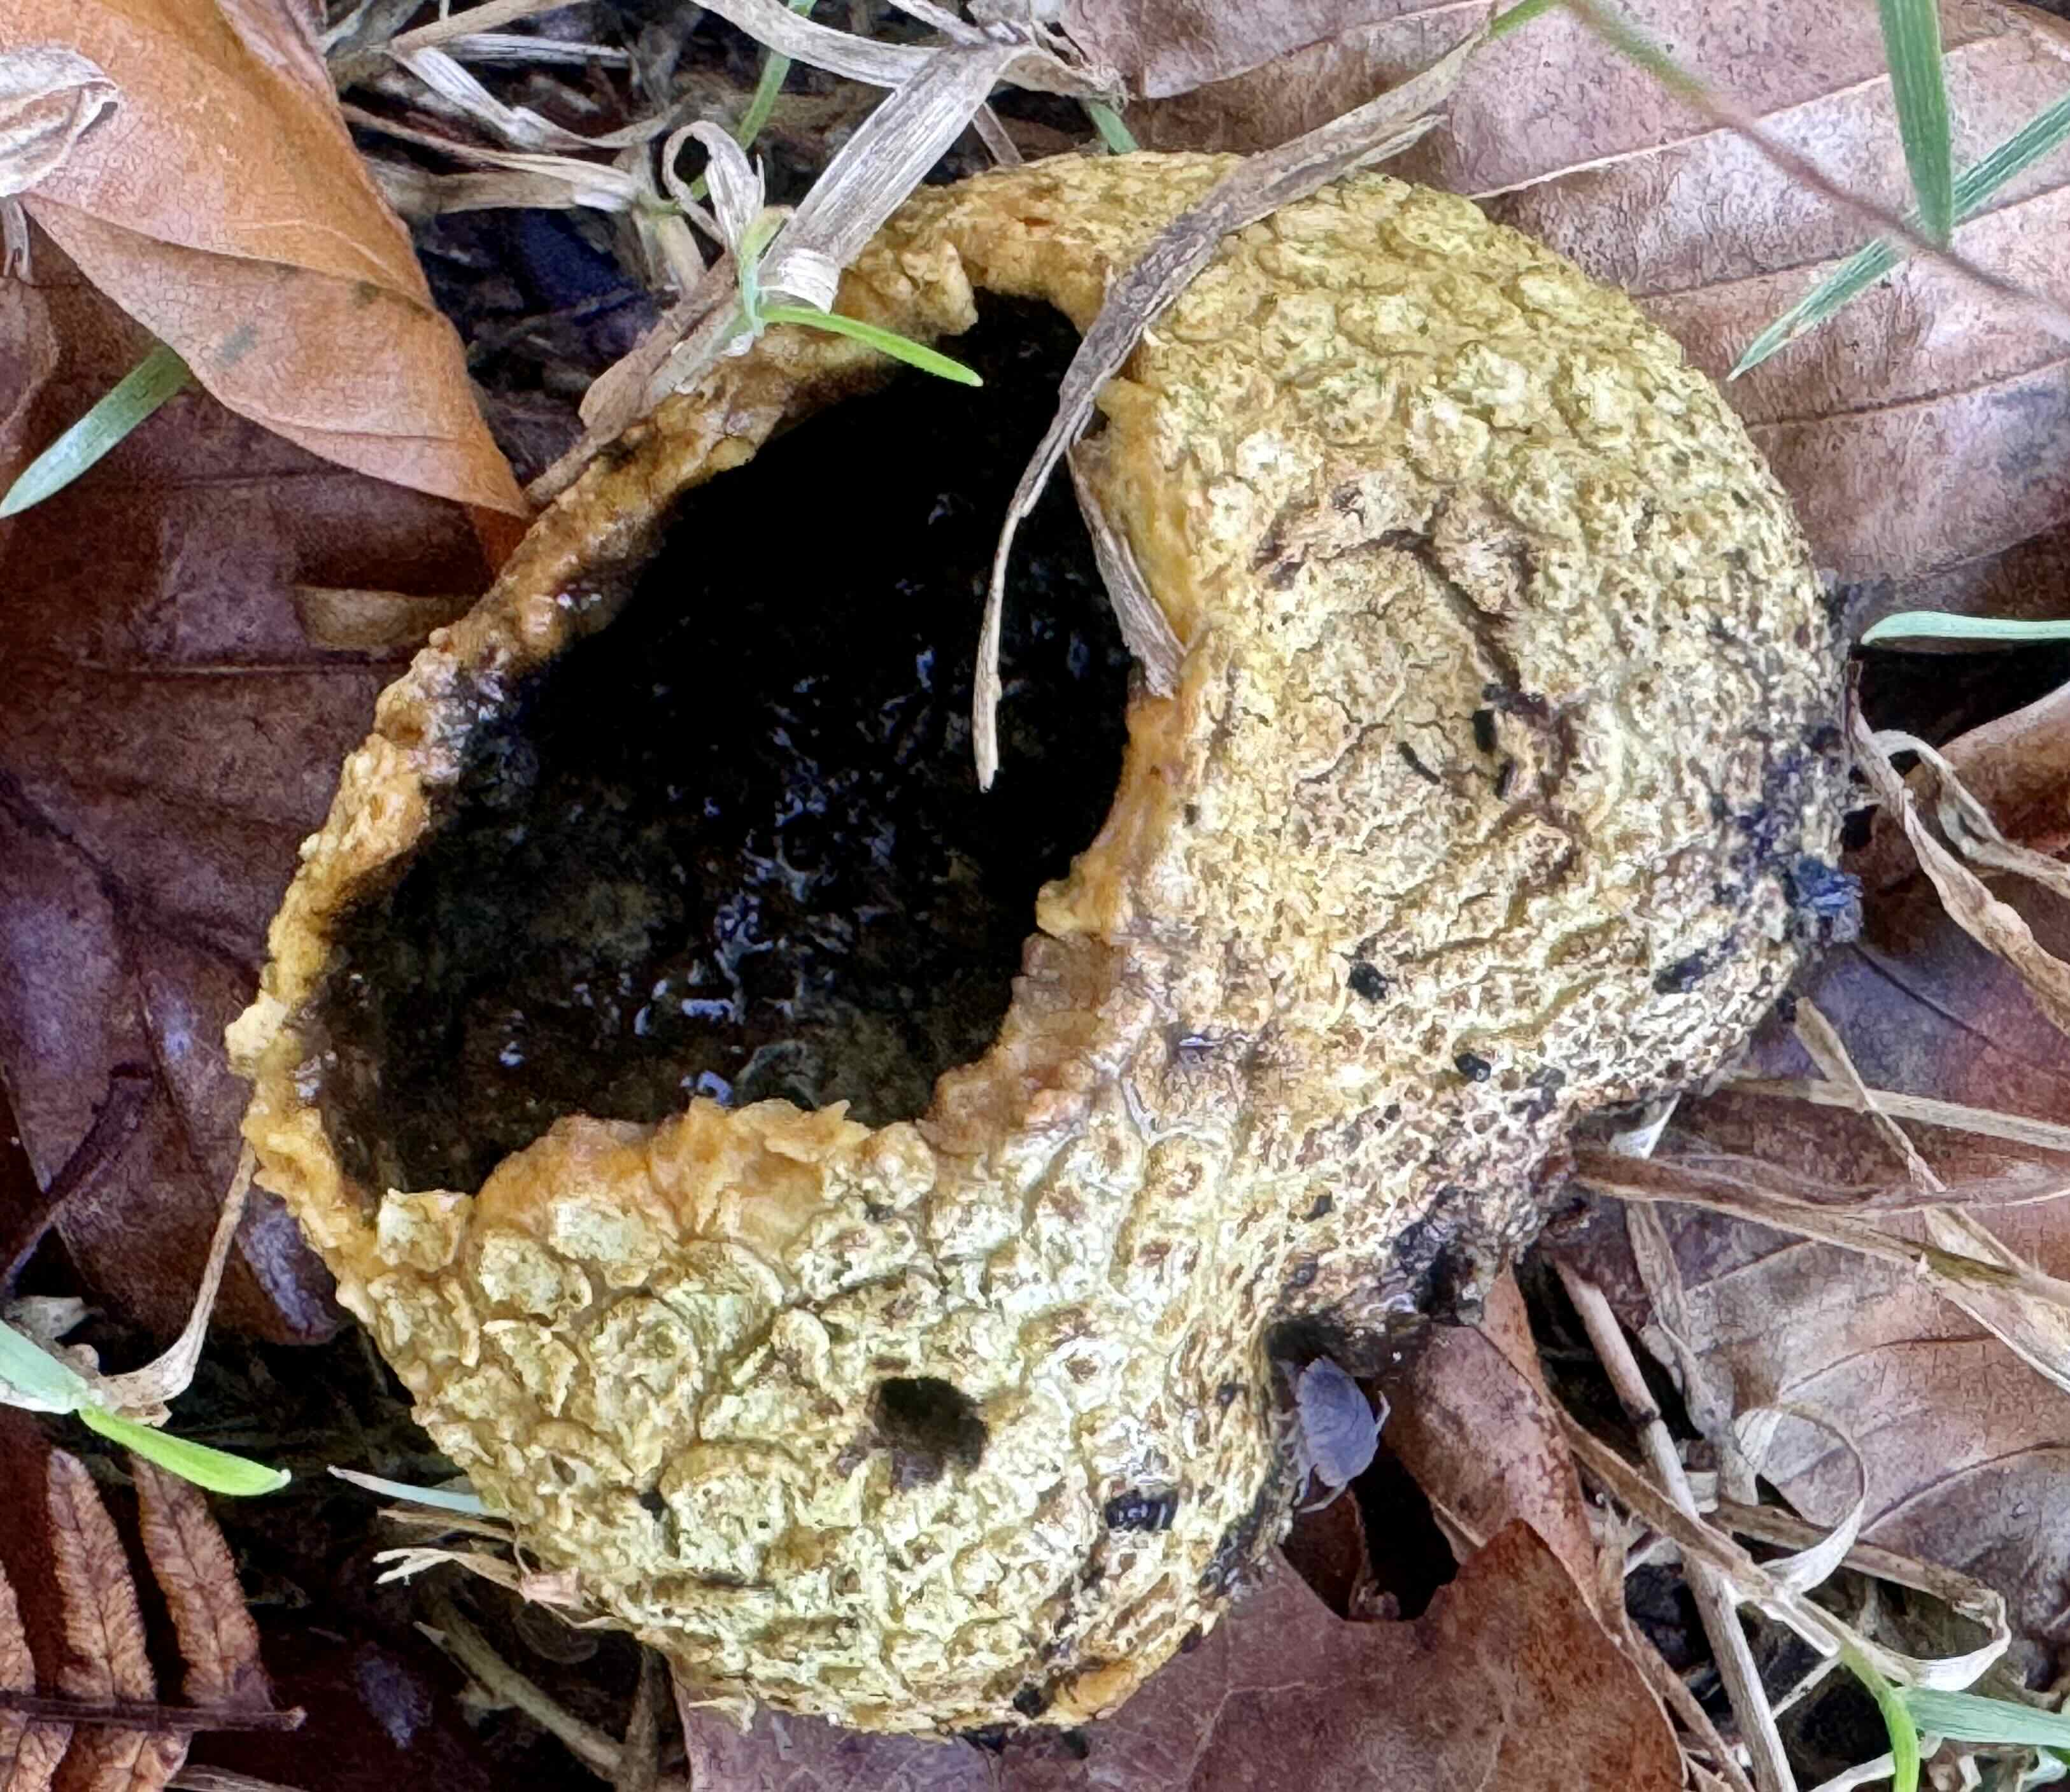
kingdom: Fungi
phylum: Basidiomycota
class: Agaricomycetes
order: Boletales
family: Sclerodermataceae
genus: Scleroderma
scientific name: Scleroderma citrinum
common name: almindelig bruskbold
